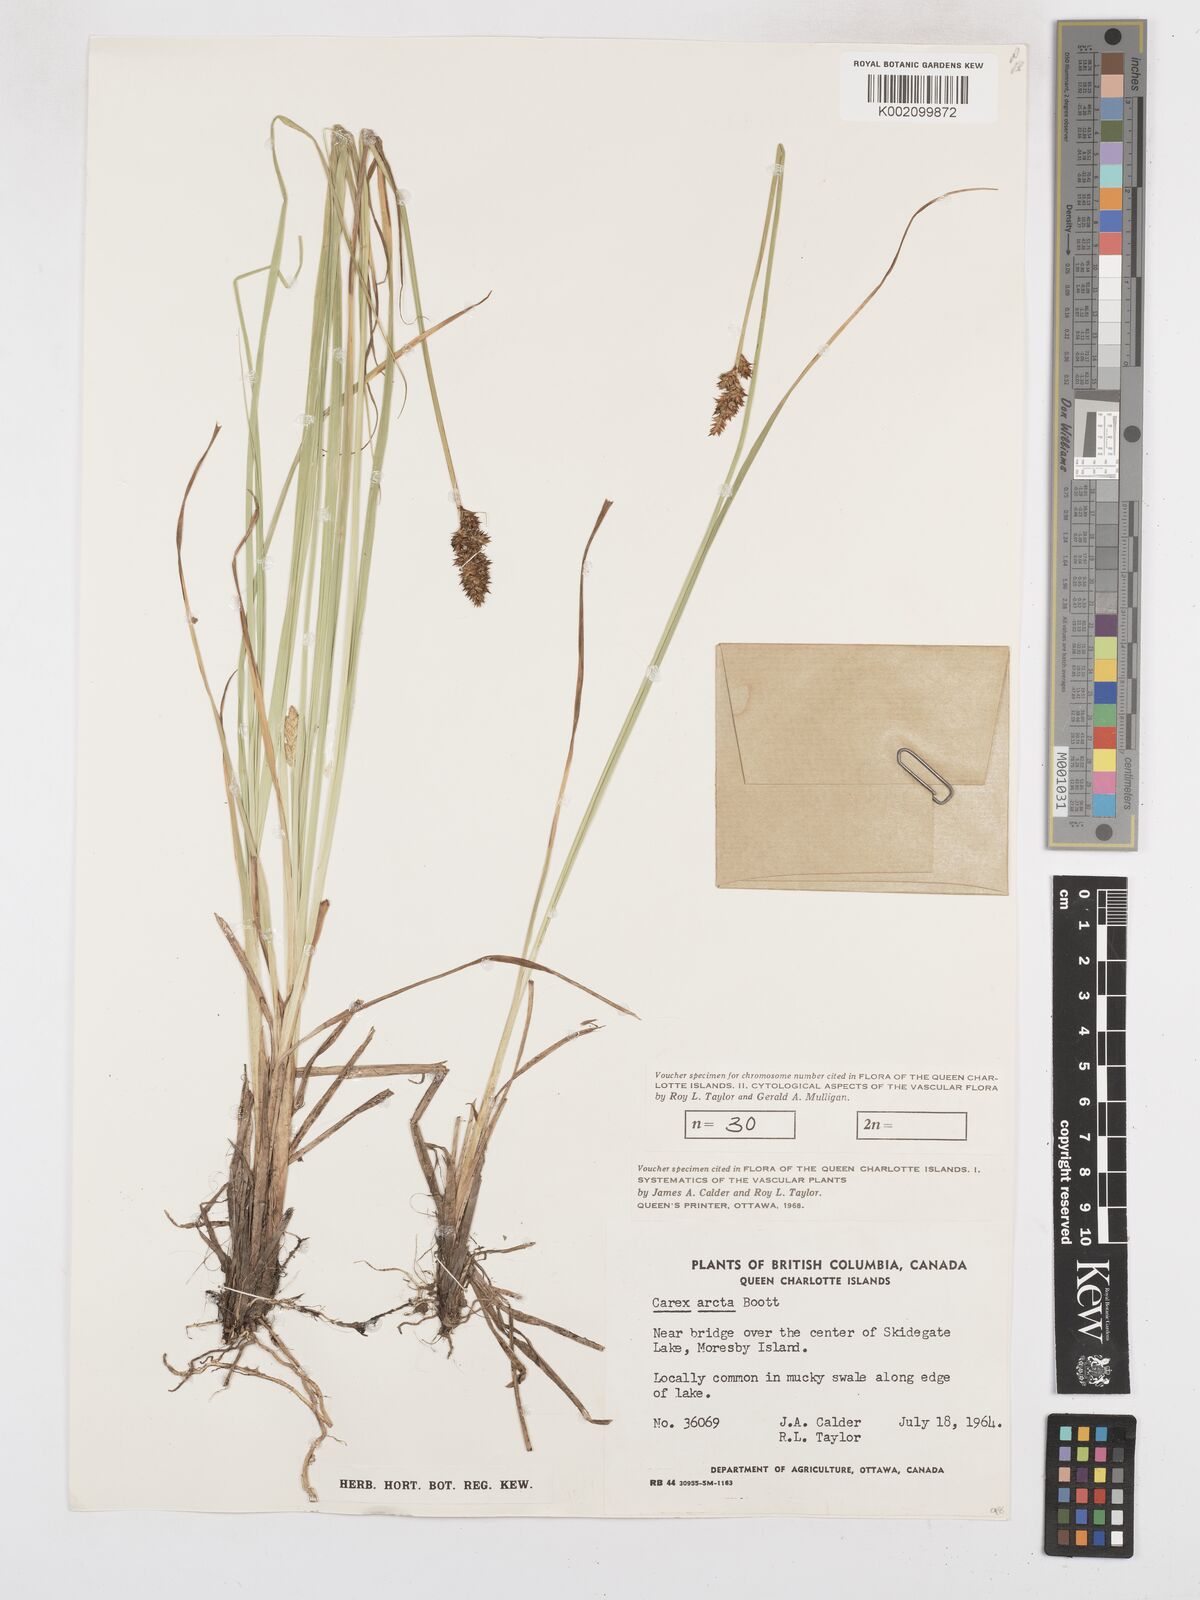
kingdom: Plantae
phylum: Tracheophyta
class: Liliopsida
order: Poales
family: Cyperaceae
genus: Carex
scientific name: Carex arcta
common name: Bear sedge
